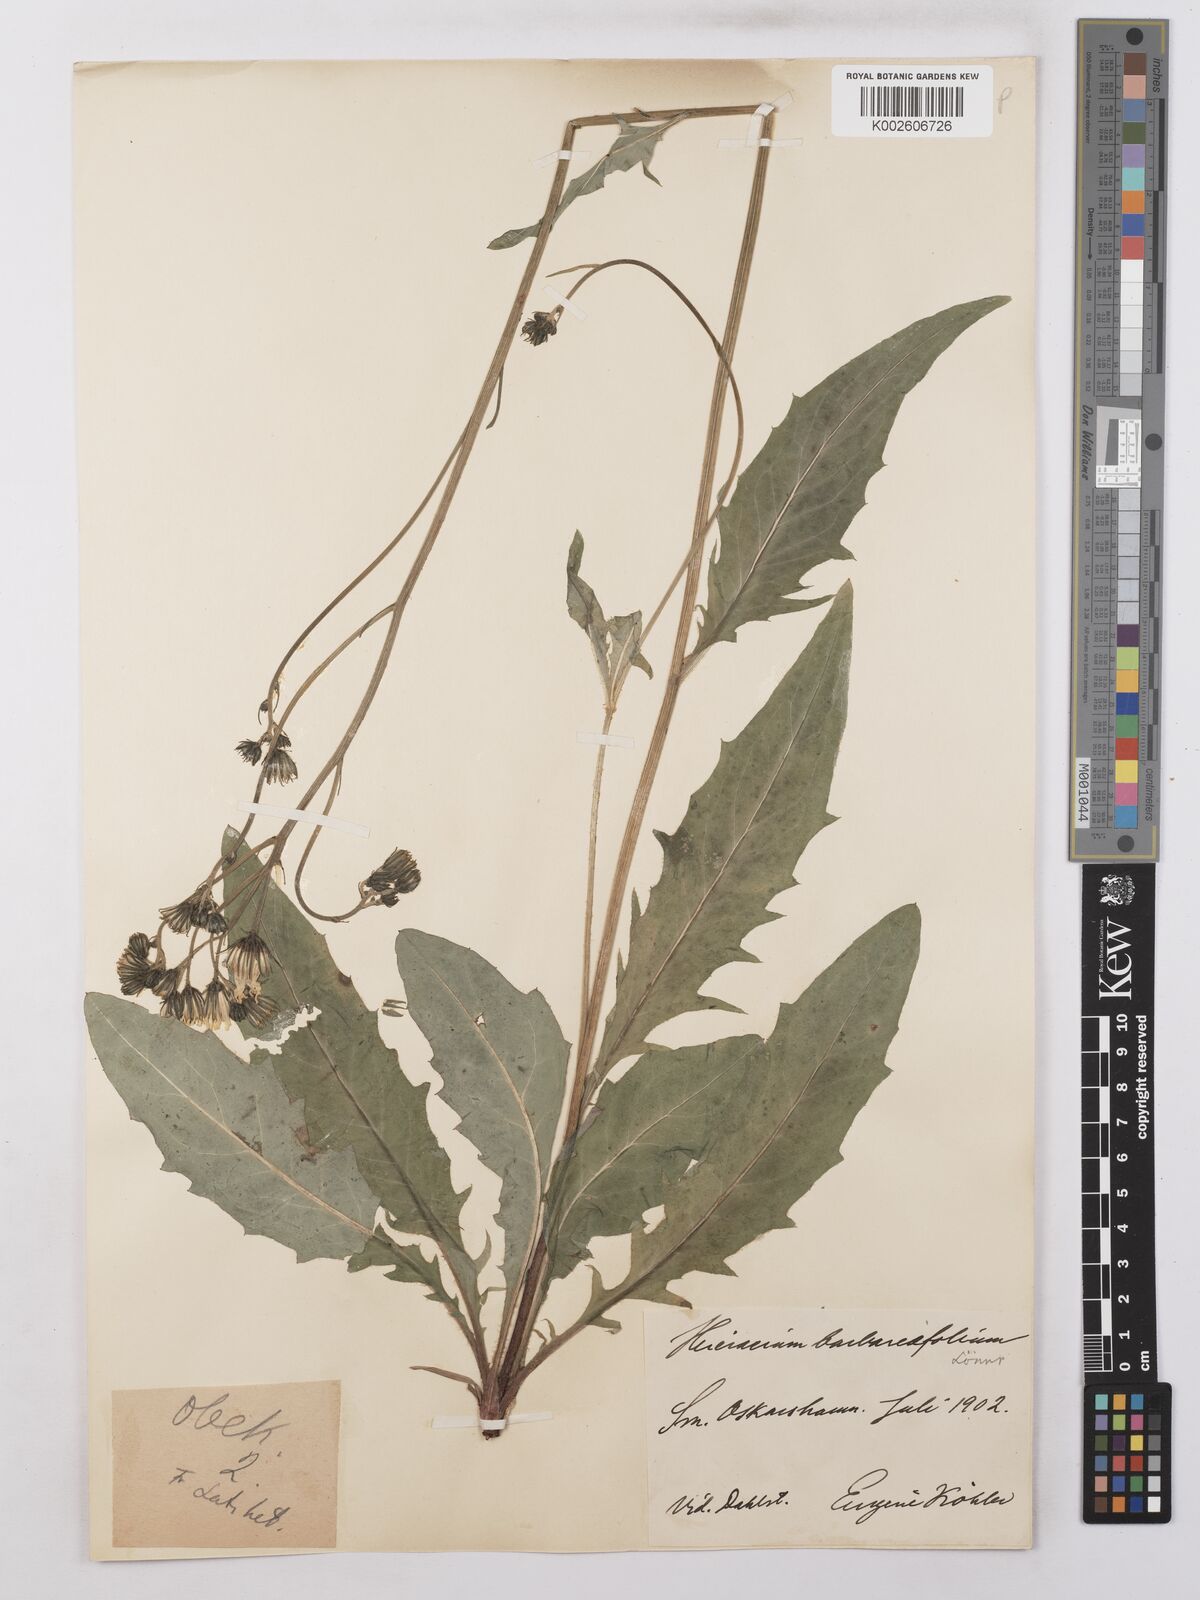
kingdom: Plantae
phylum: Tracheophyta
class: Magnoliopsida
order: Asterales
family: Asteraceae
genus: Hieracium
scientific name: Hieracium lachenalii
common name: Common hawkweed
